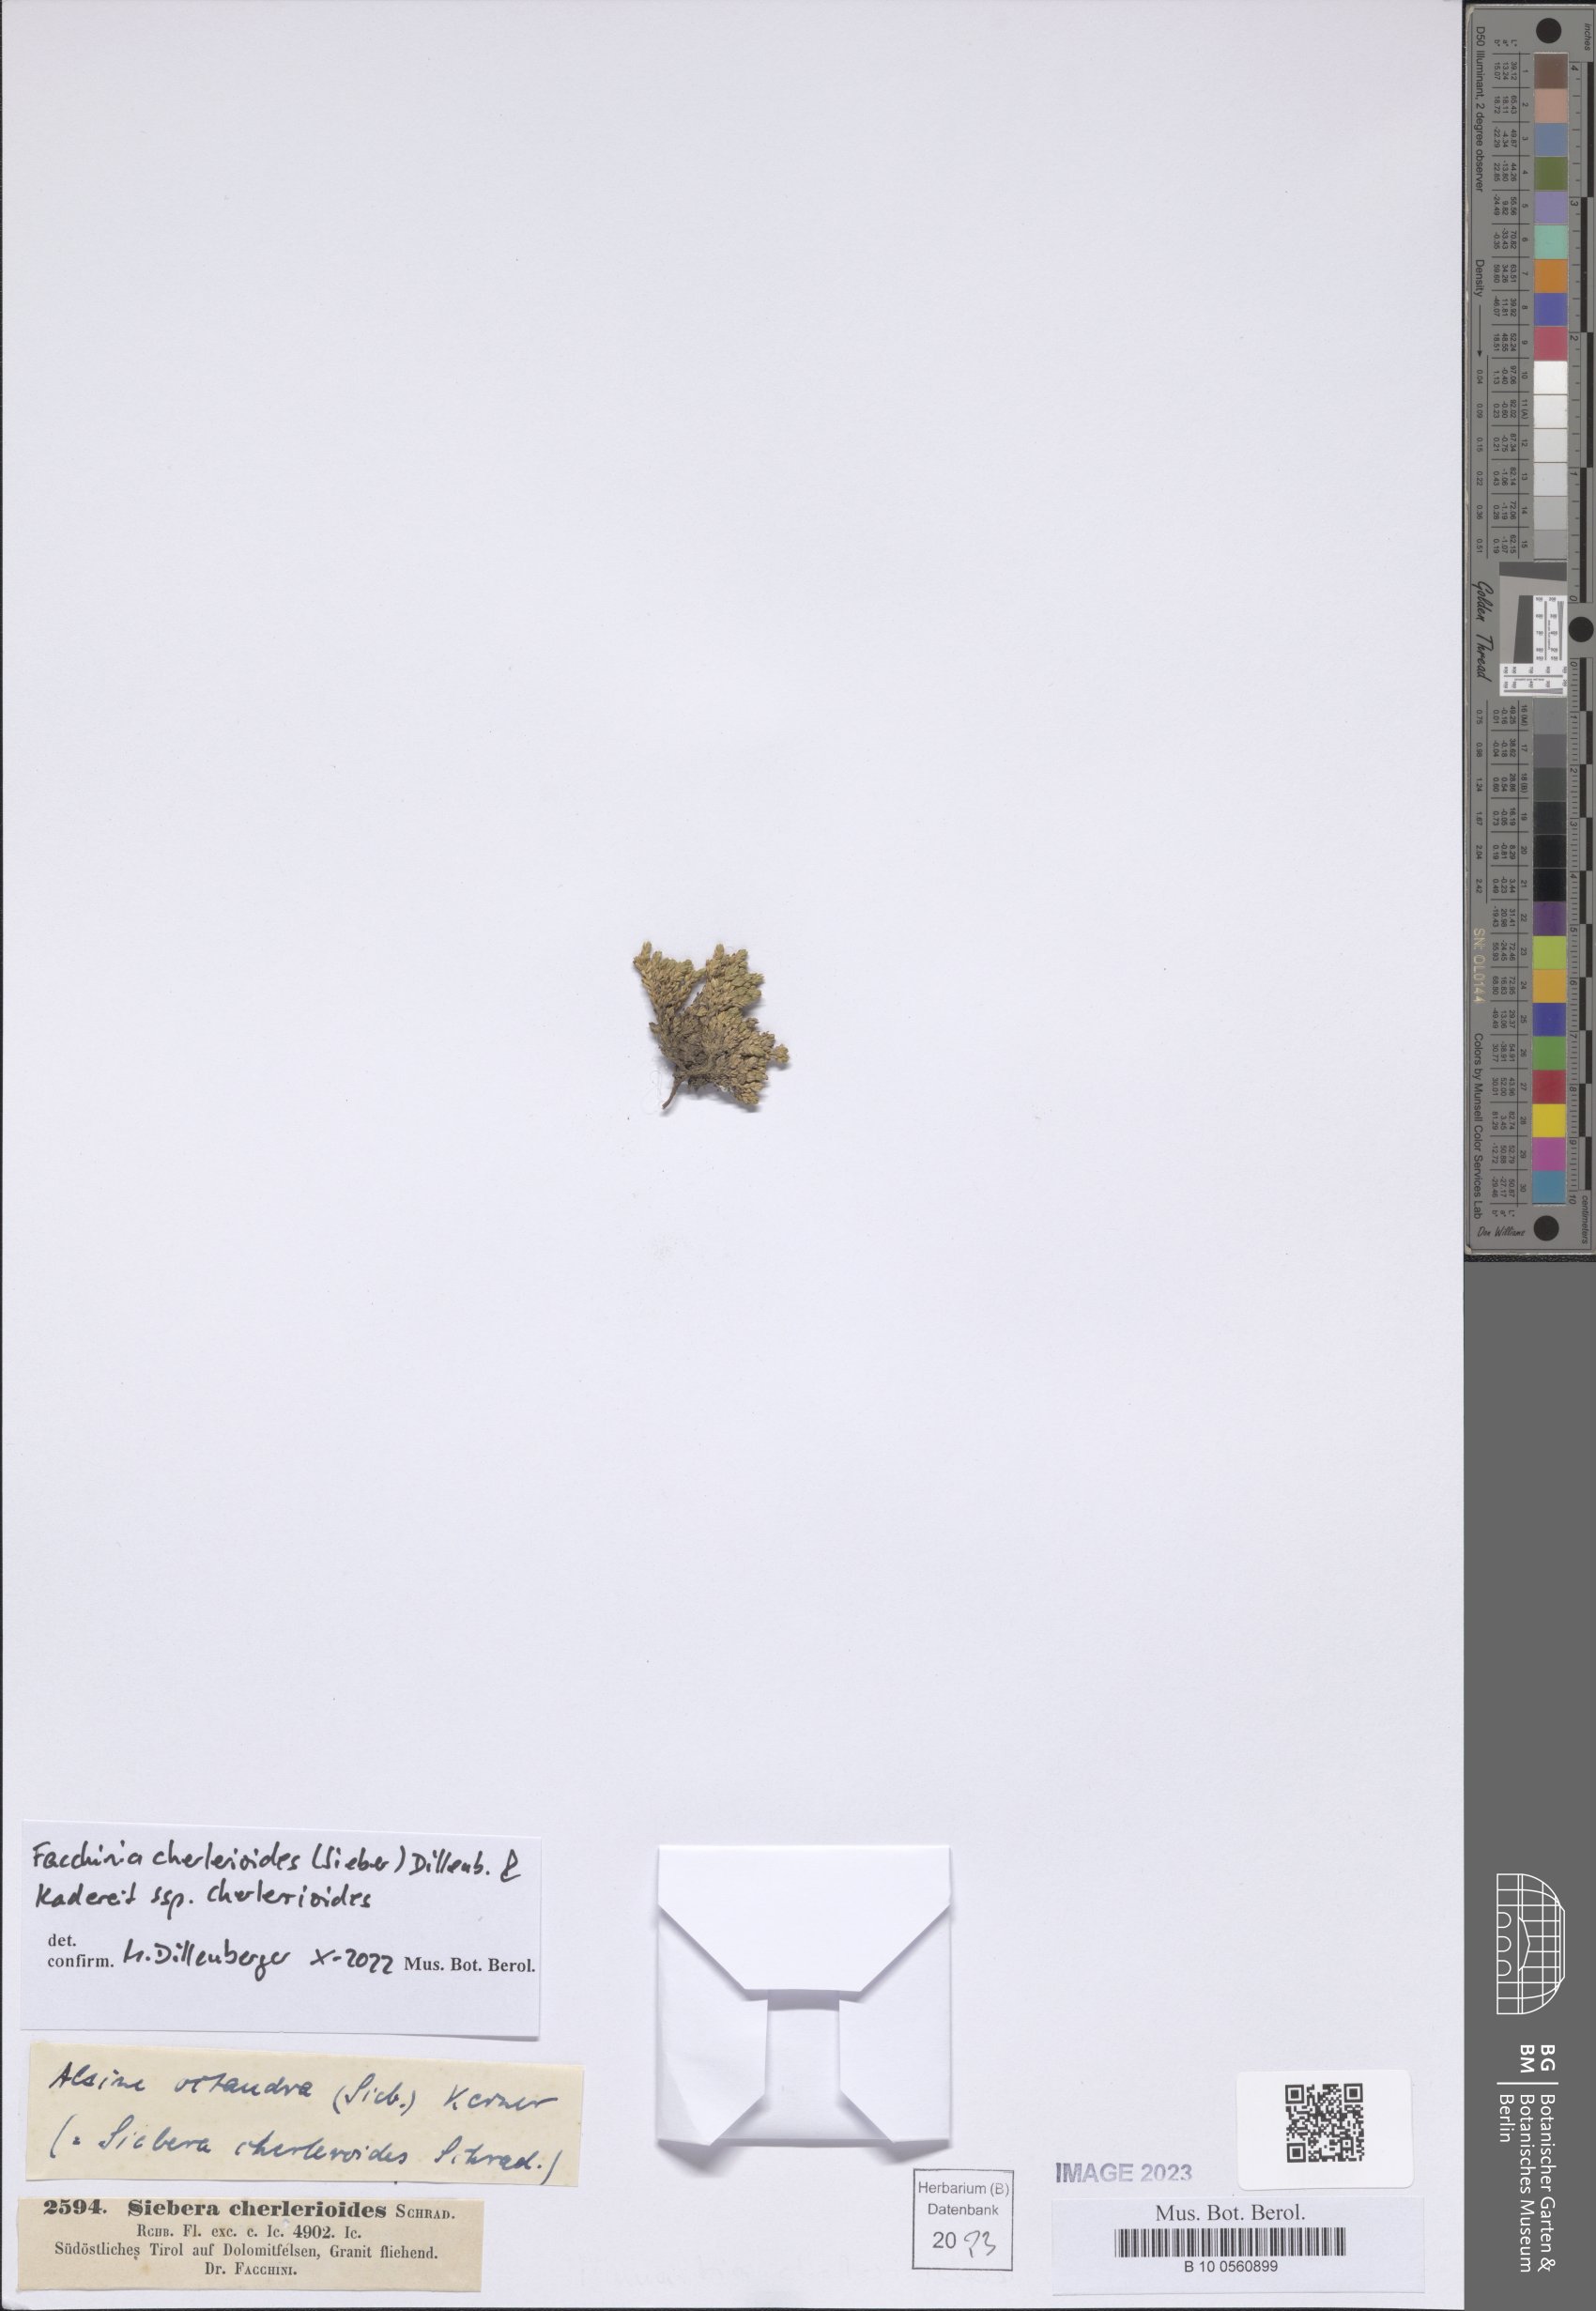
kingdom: Plantae
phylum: Tracheophyta
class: Magnoliopsida
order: Caryophyllales
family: Caryophyllaceae
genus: Facchinia
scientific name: Facchinia cherlerioides
